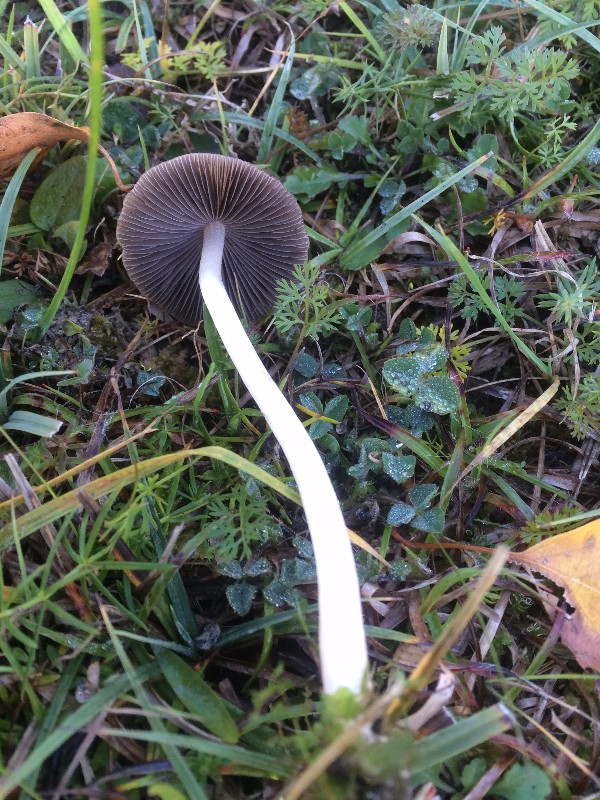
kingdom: Fungi
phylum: Basidiomycota
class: Agaricomycetes
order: Agaricales
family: Psathyrellaceae
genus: Psathyrella
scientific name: Psathyrella fusca
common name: gråbladet mørkhat
